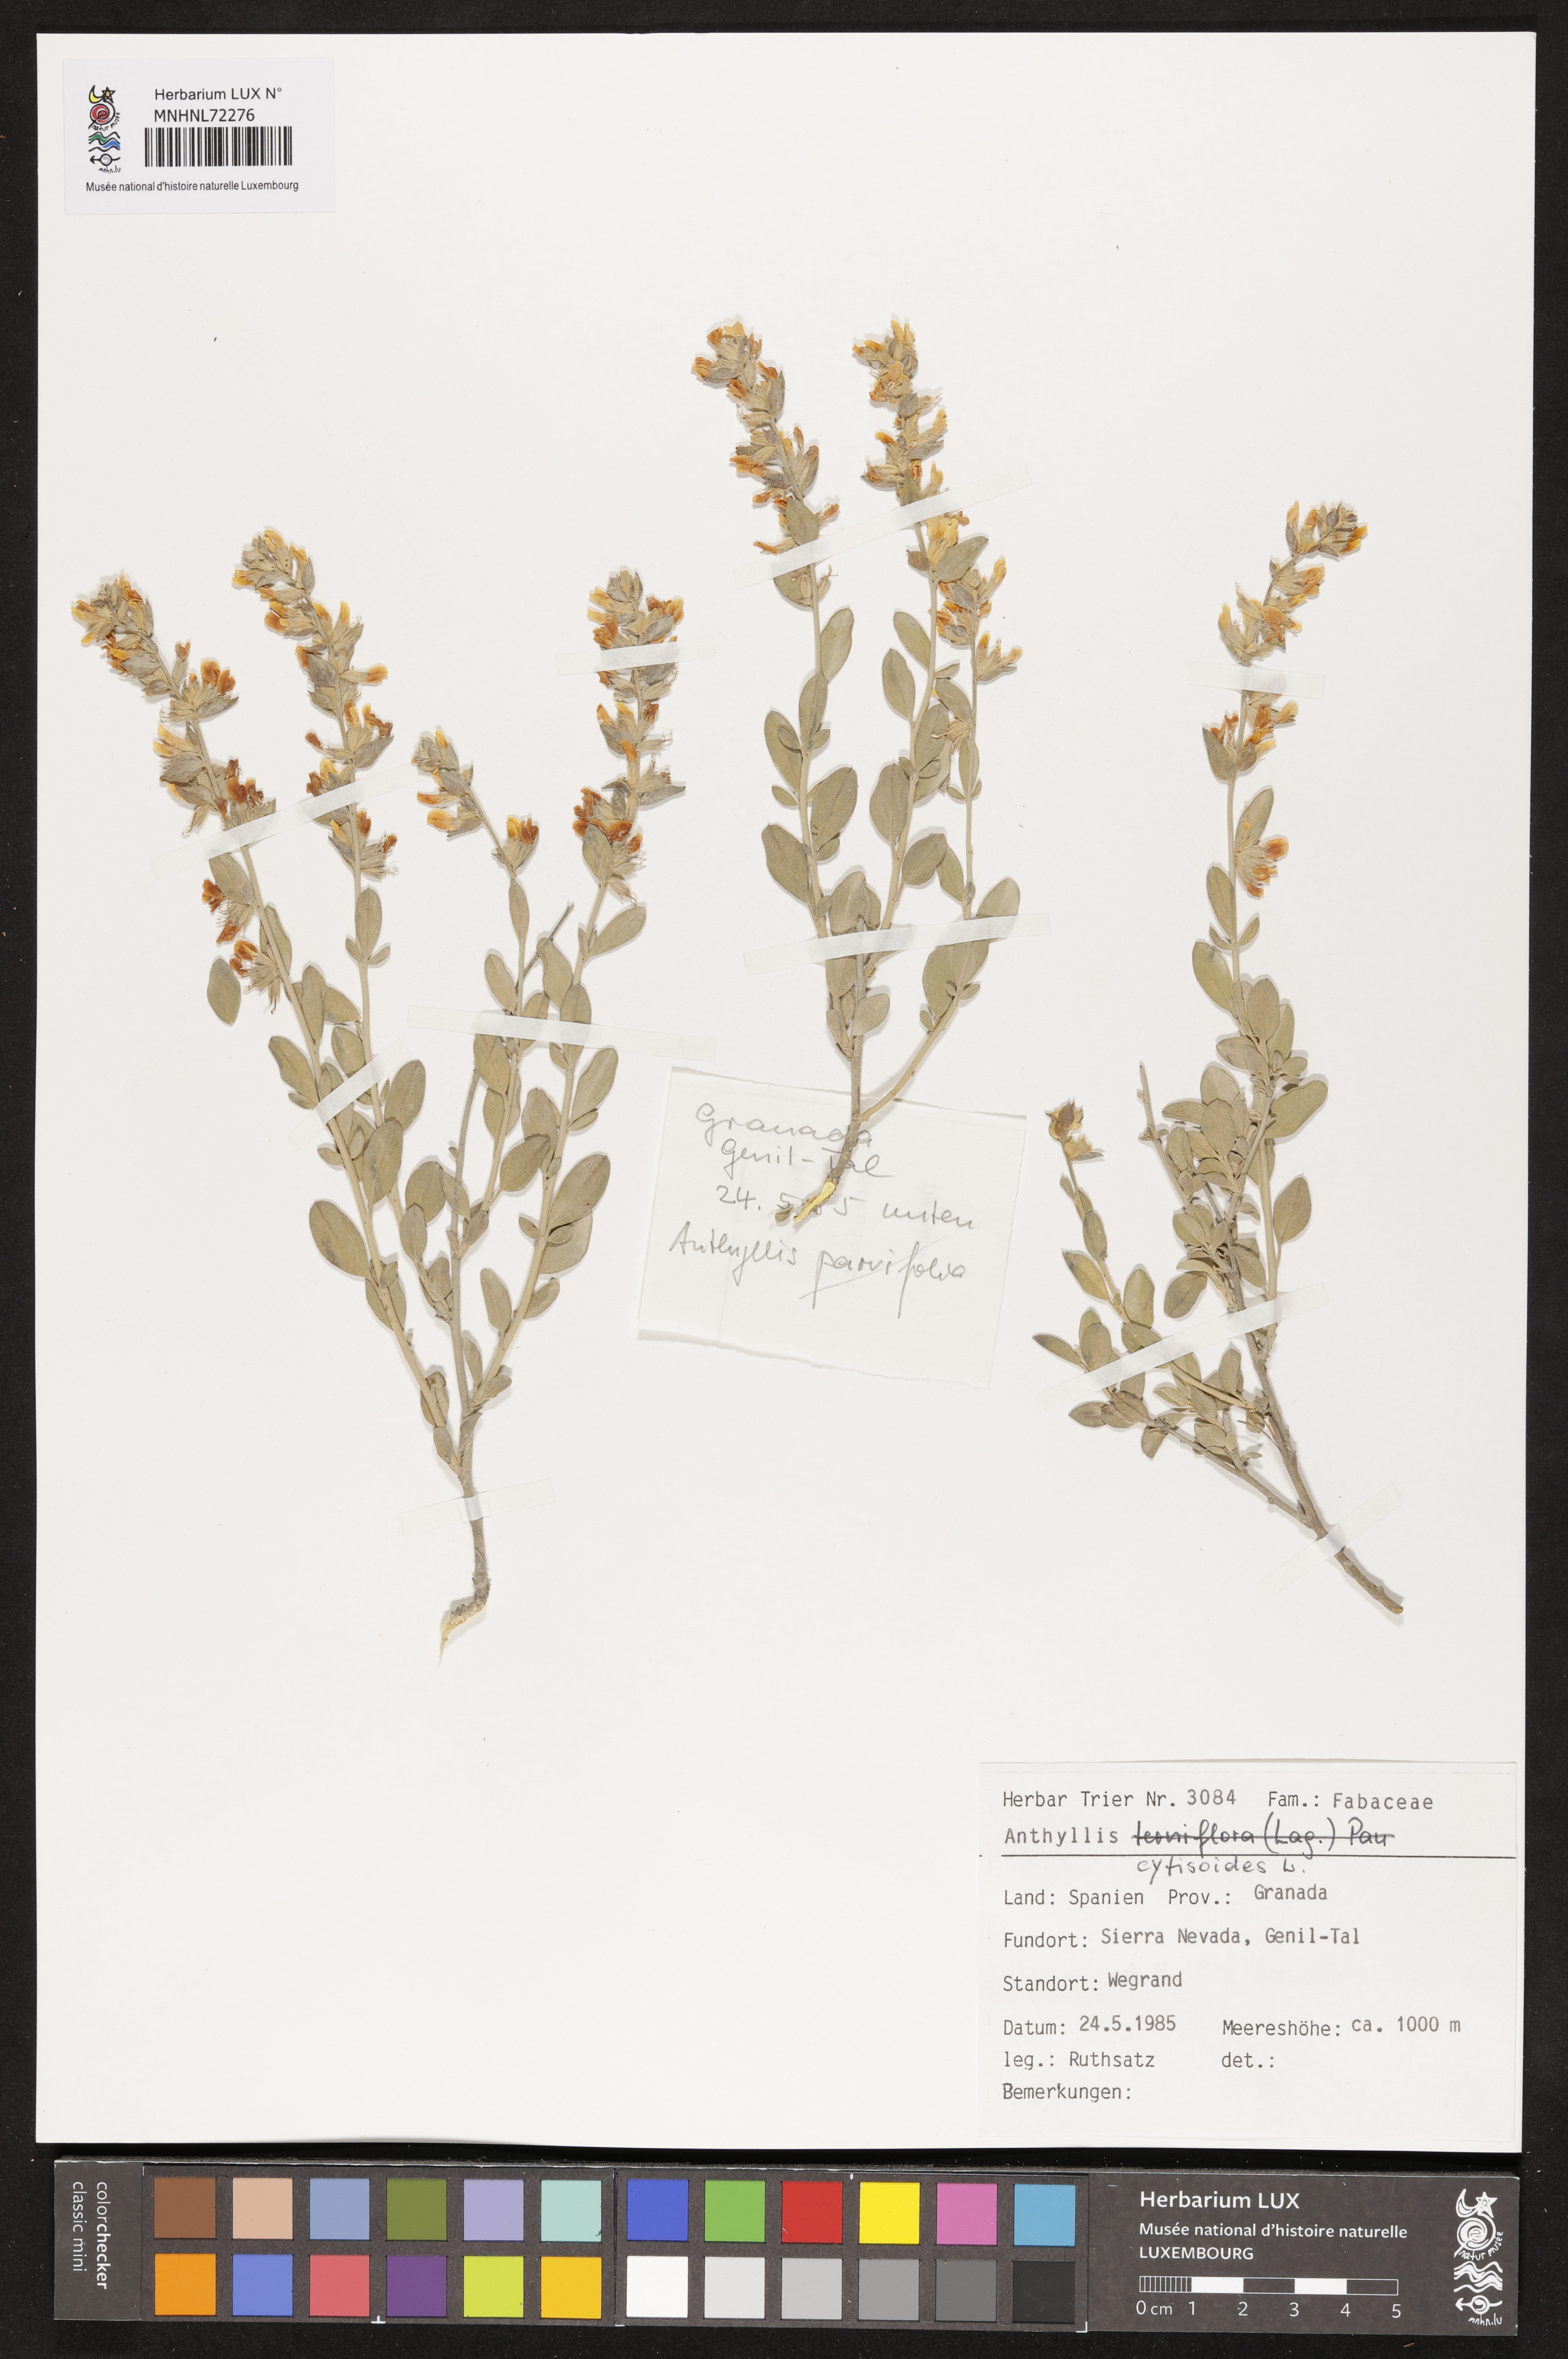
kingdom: Plantae
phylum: Tracheophyta
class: Magnoliopsida
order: Fabales
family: Fabaceae
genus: Anthyllis
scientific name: Anthyllis cytisoides
